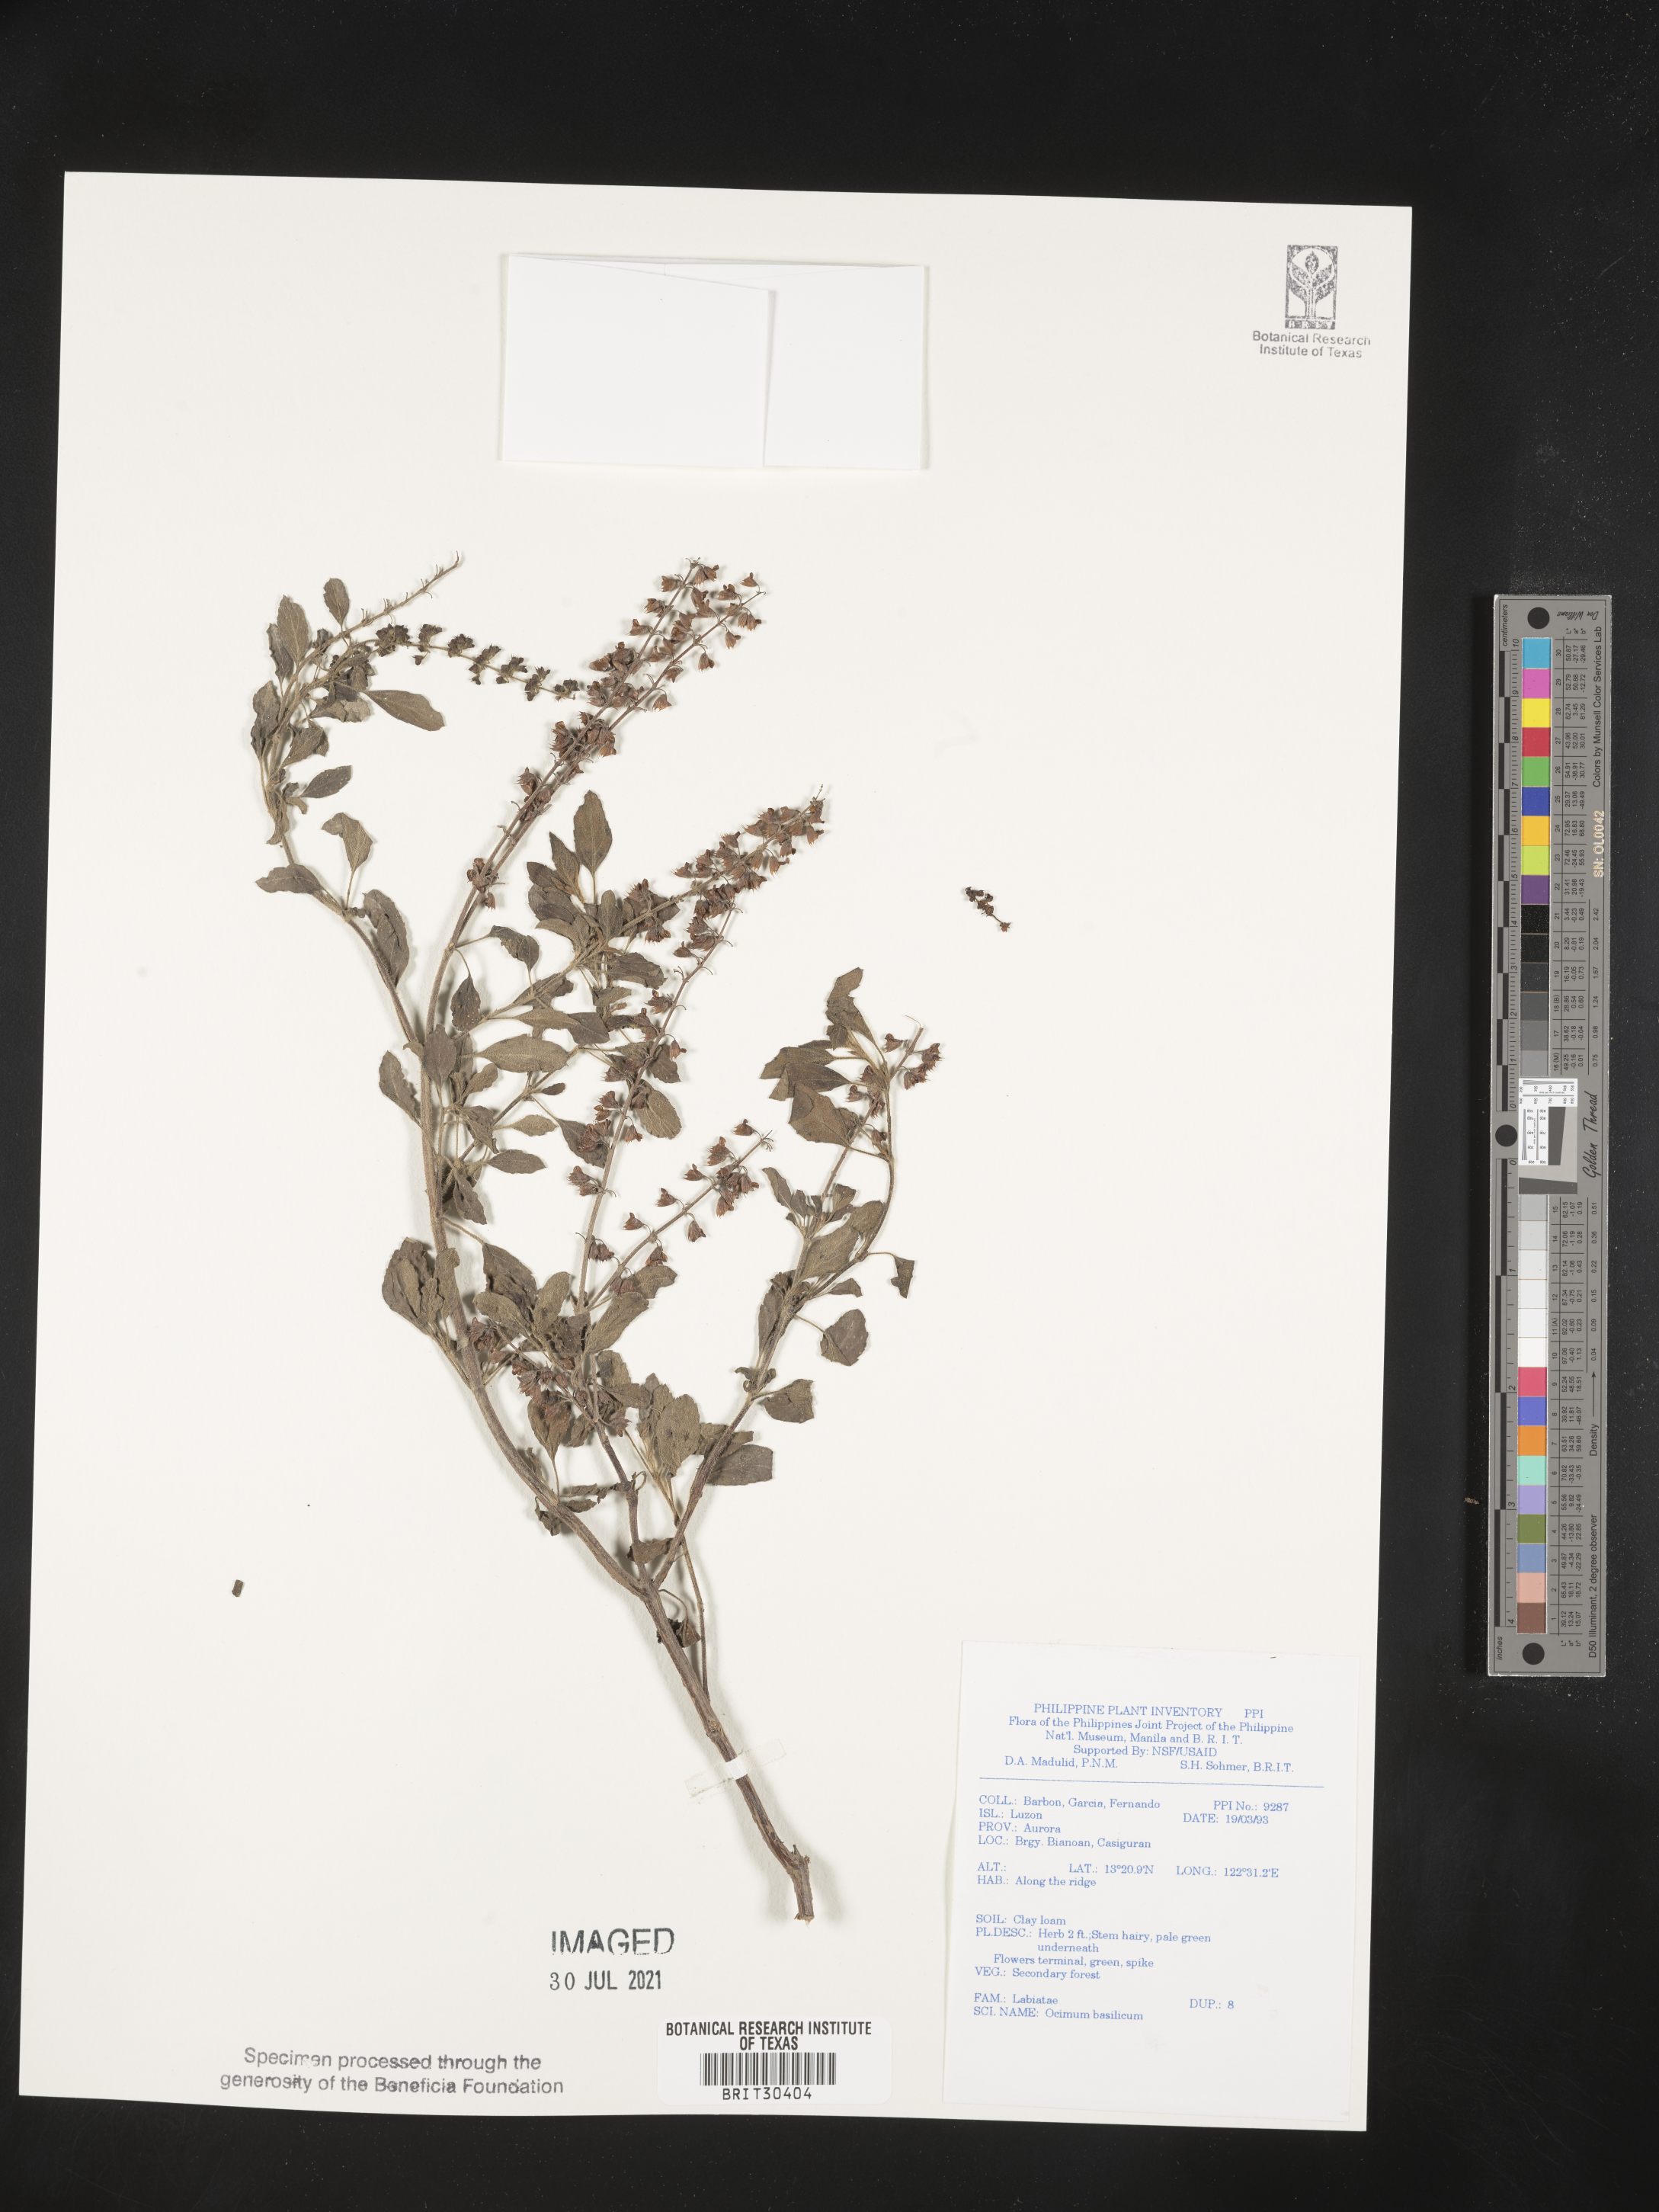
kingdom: Plantae
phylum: Tracheophyta
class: Magnoliopsida
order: Lamiales
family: Lamiaceae
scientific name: Lamiaceae
